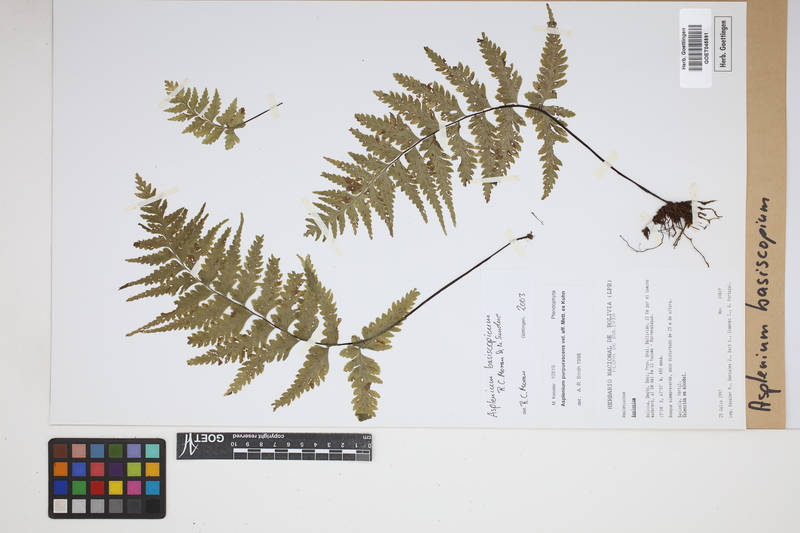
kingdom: Plantae
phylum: Tracheophyta
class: Polypodiopsida
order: Polypodiales
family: Aspleniaceae
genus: Hymenasplenium
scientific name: Hymenasplenium basiscopicum
